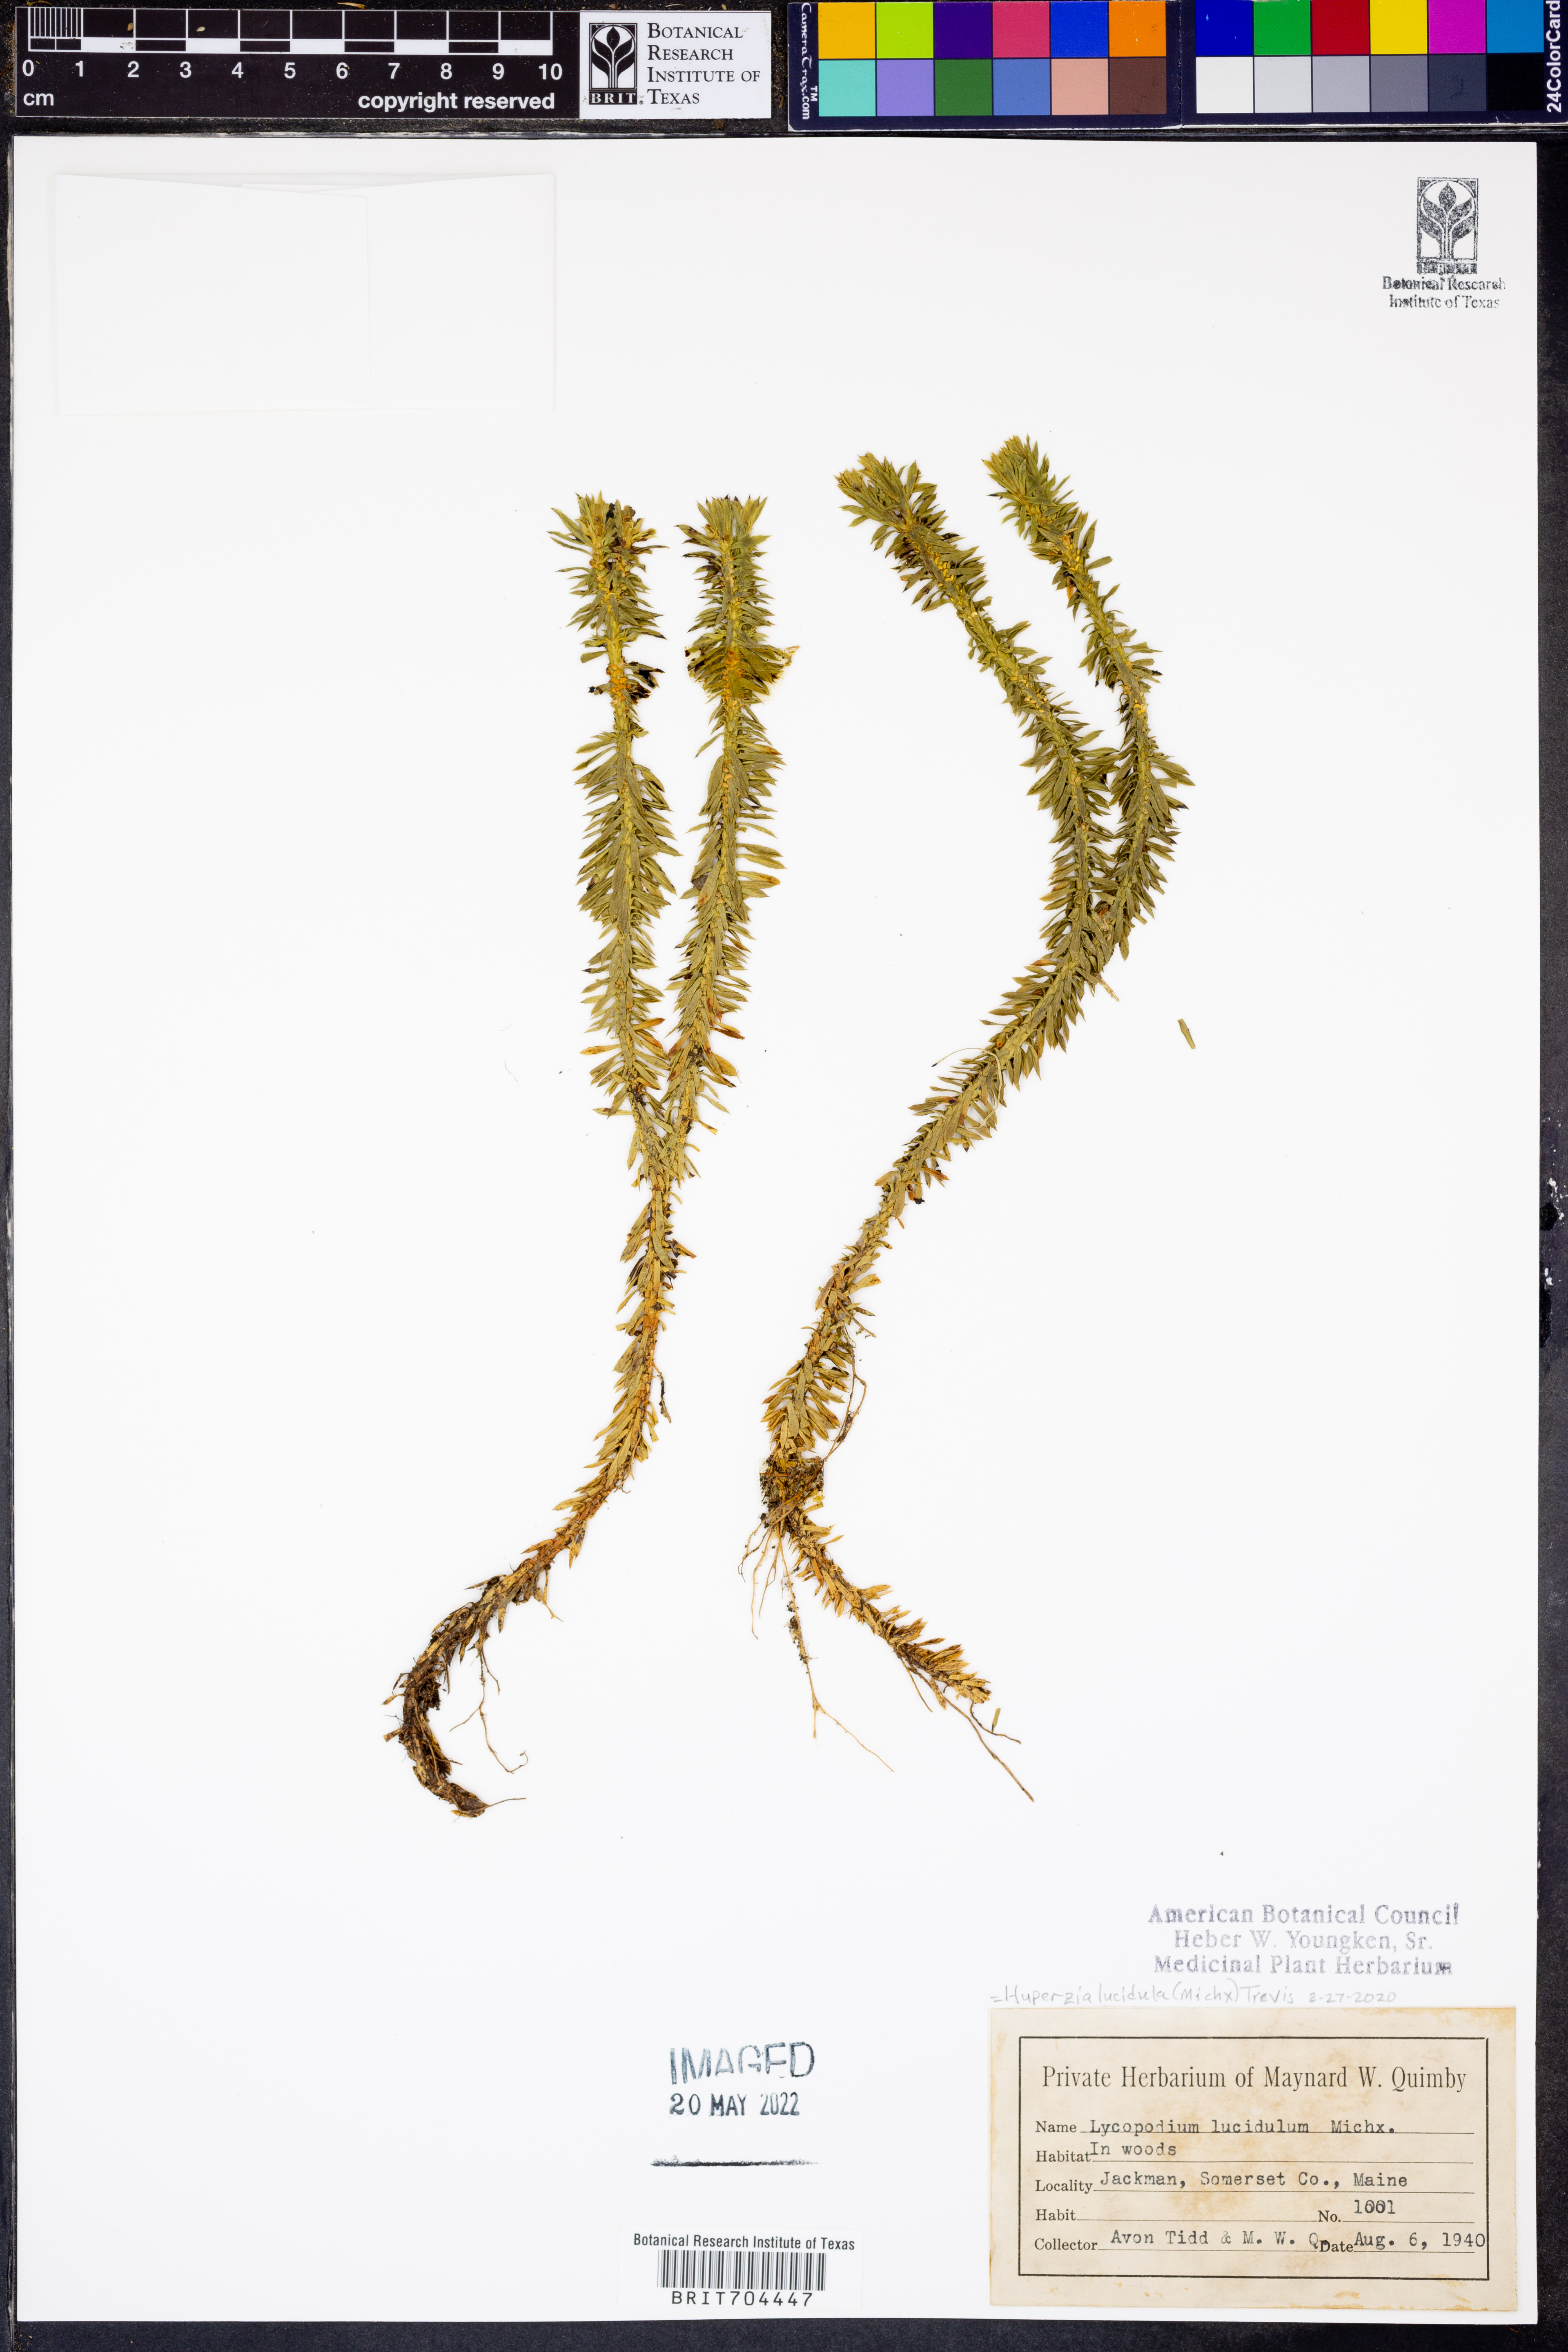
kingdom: Plantae
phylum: Tracheophyta
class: Lycopodiopsida
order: Lycopodiales
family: Lycopodiaceae
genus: Huperzia
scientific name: Huperzia lucidula
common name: Shining clubmoss
